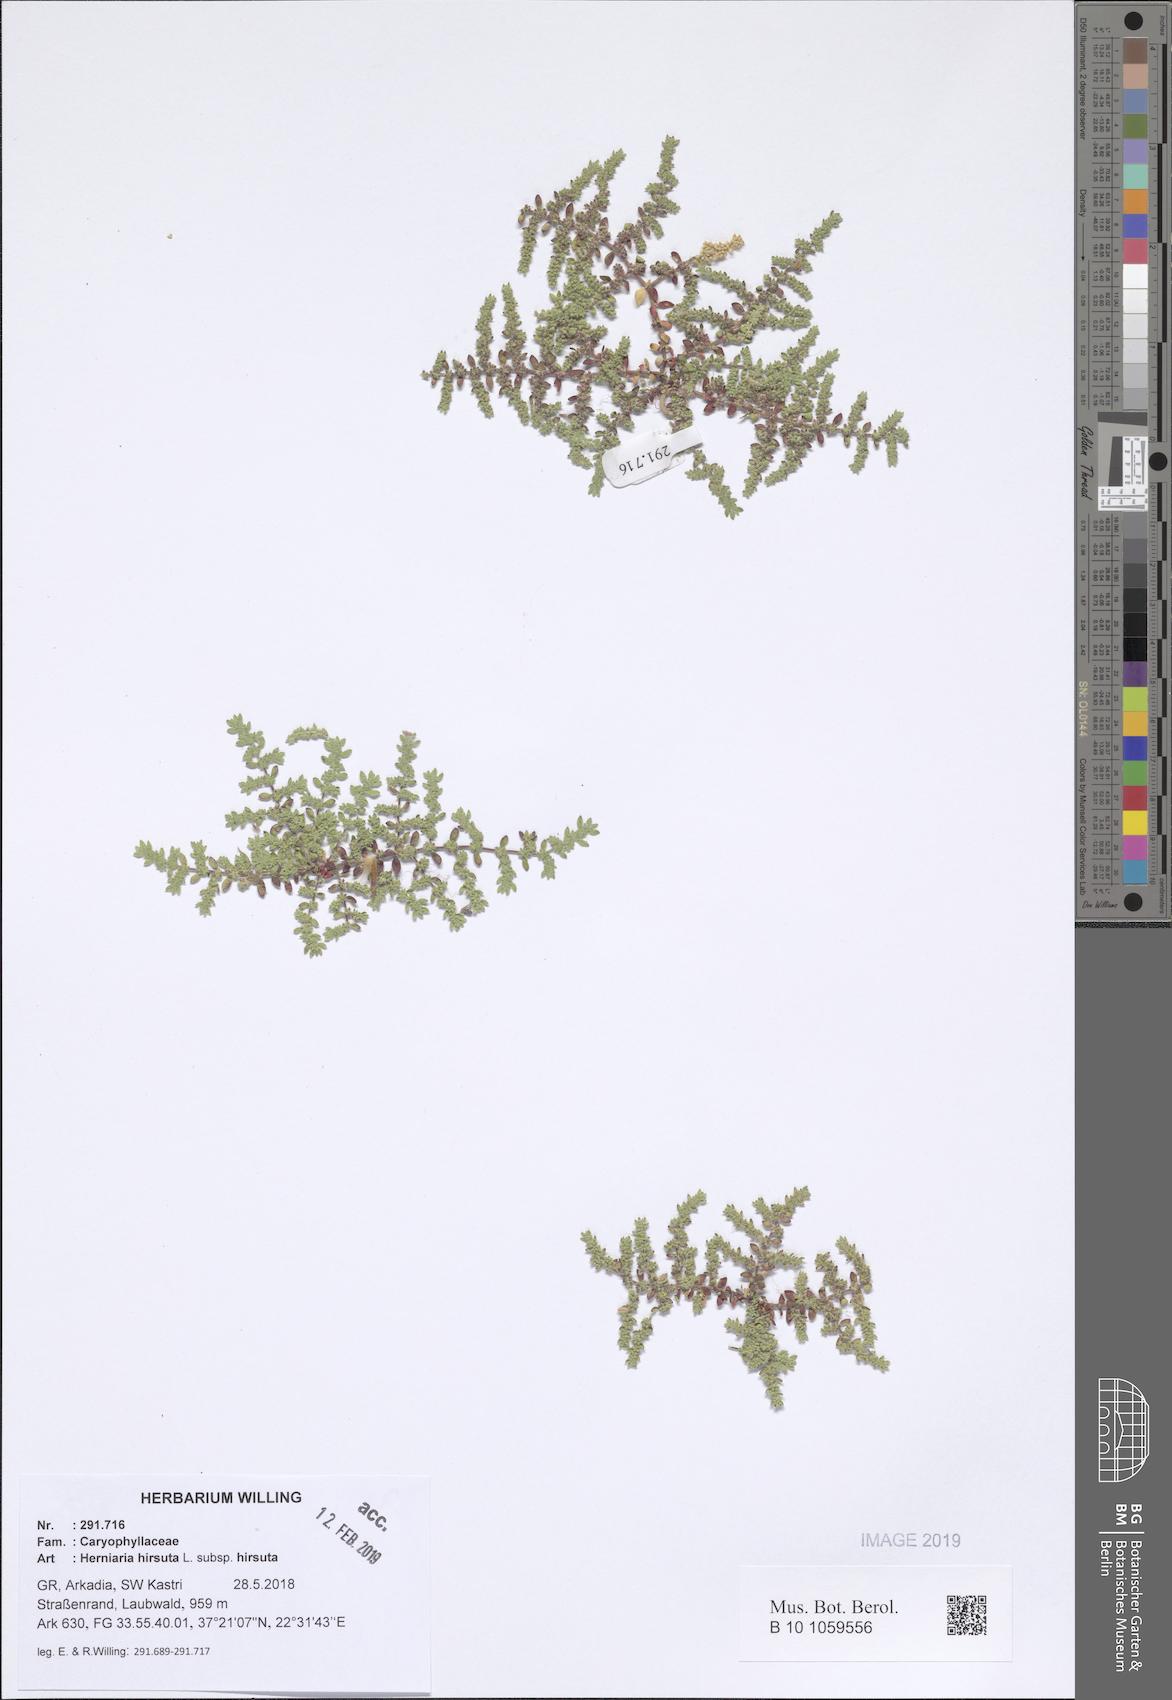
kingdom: Plantae
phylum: Tracheophyta
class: Magnoliopsida
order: Caryophyllales
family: Caryophyllaceae
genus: Herniaria
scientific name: Herniaria hirsuta
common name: Hairy rupturewort
